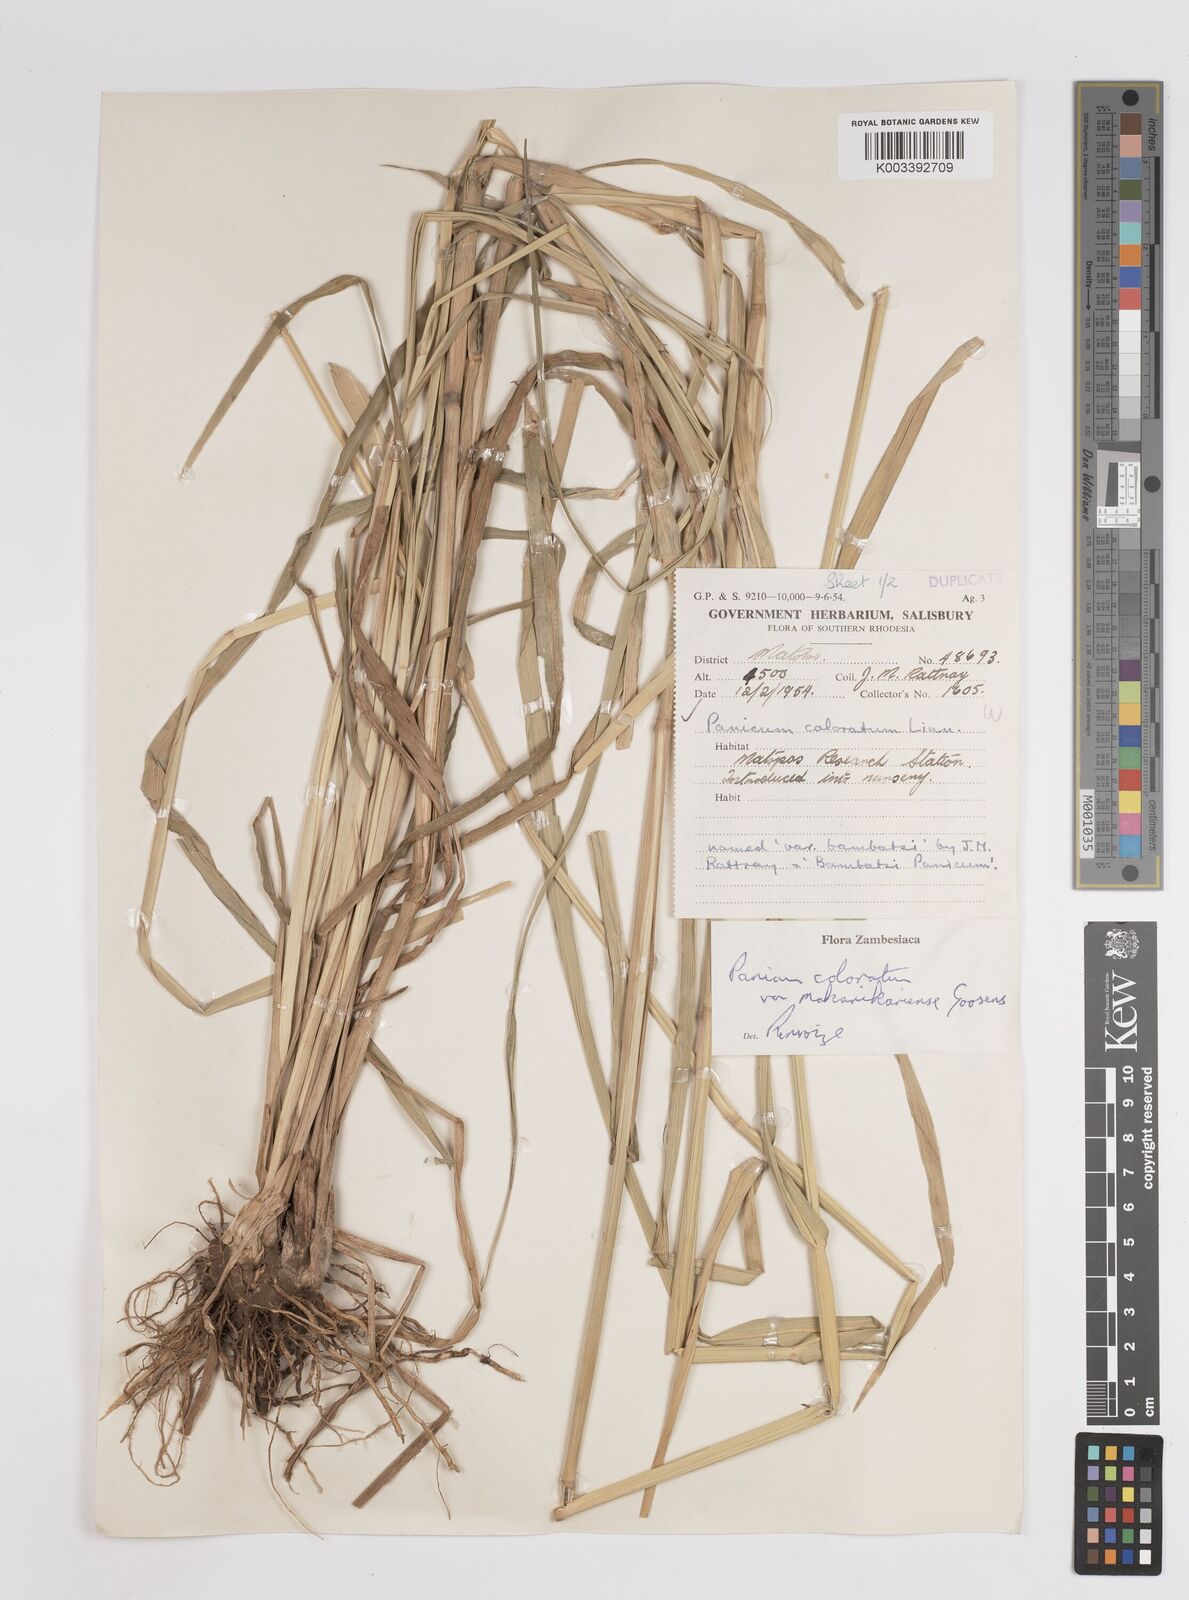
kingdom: Plantae
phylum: Tracheophyta
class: Liliopsida
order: Poales
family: Poaceae
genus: Panicum
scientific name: Panicum coloratum
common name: Kleingrass
